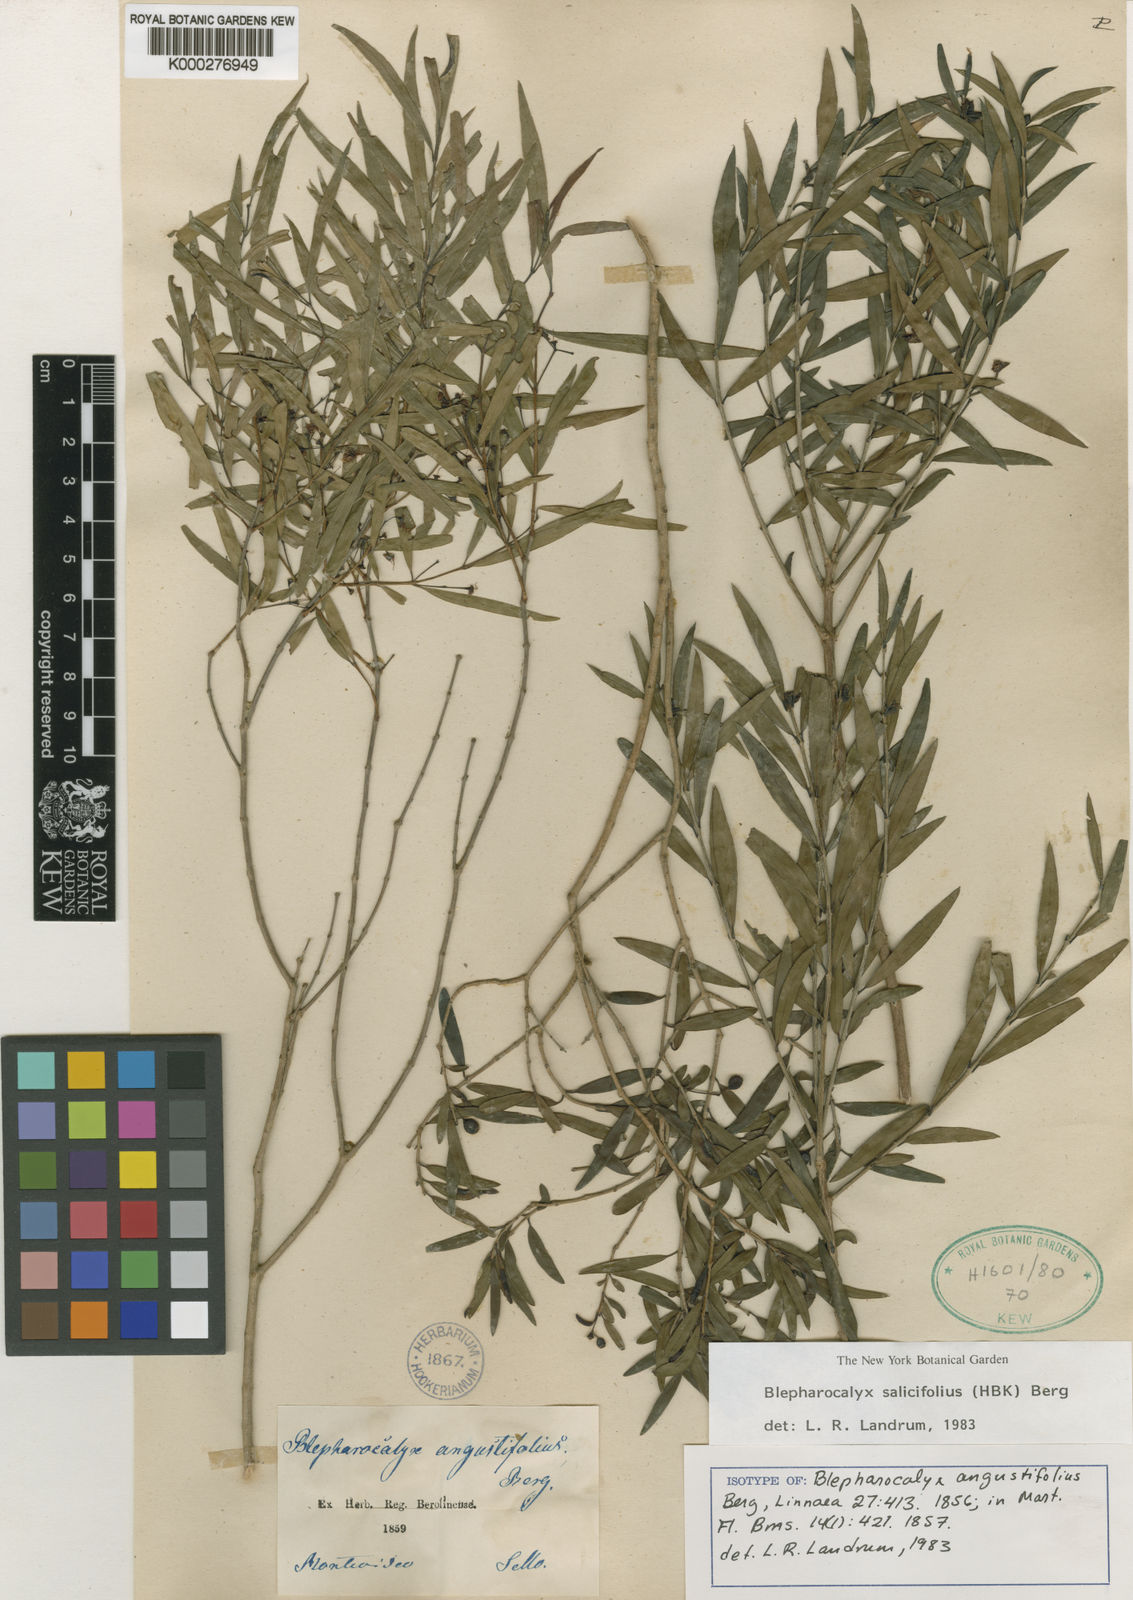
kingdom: Plantae
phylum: Tracheophyta
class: Magnoliopsida
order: Myrtales
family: Myrtaceae
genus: Blepharocalyx
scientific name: Blepharocalyx salicifolius
